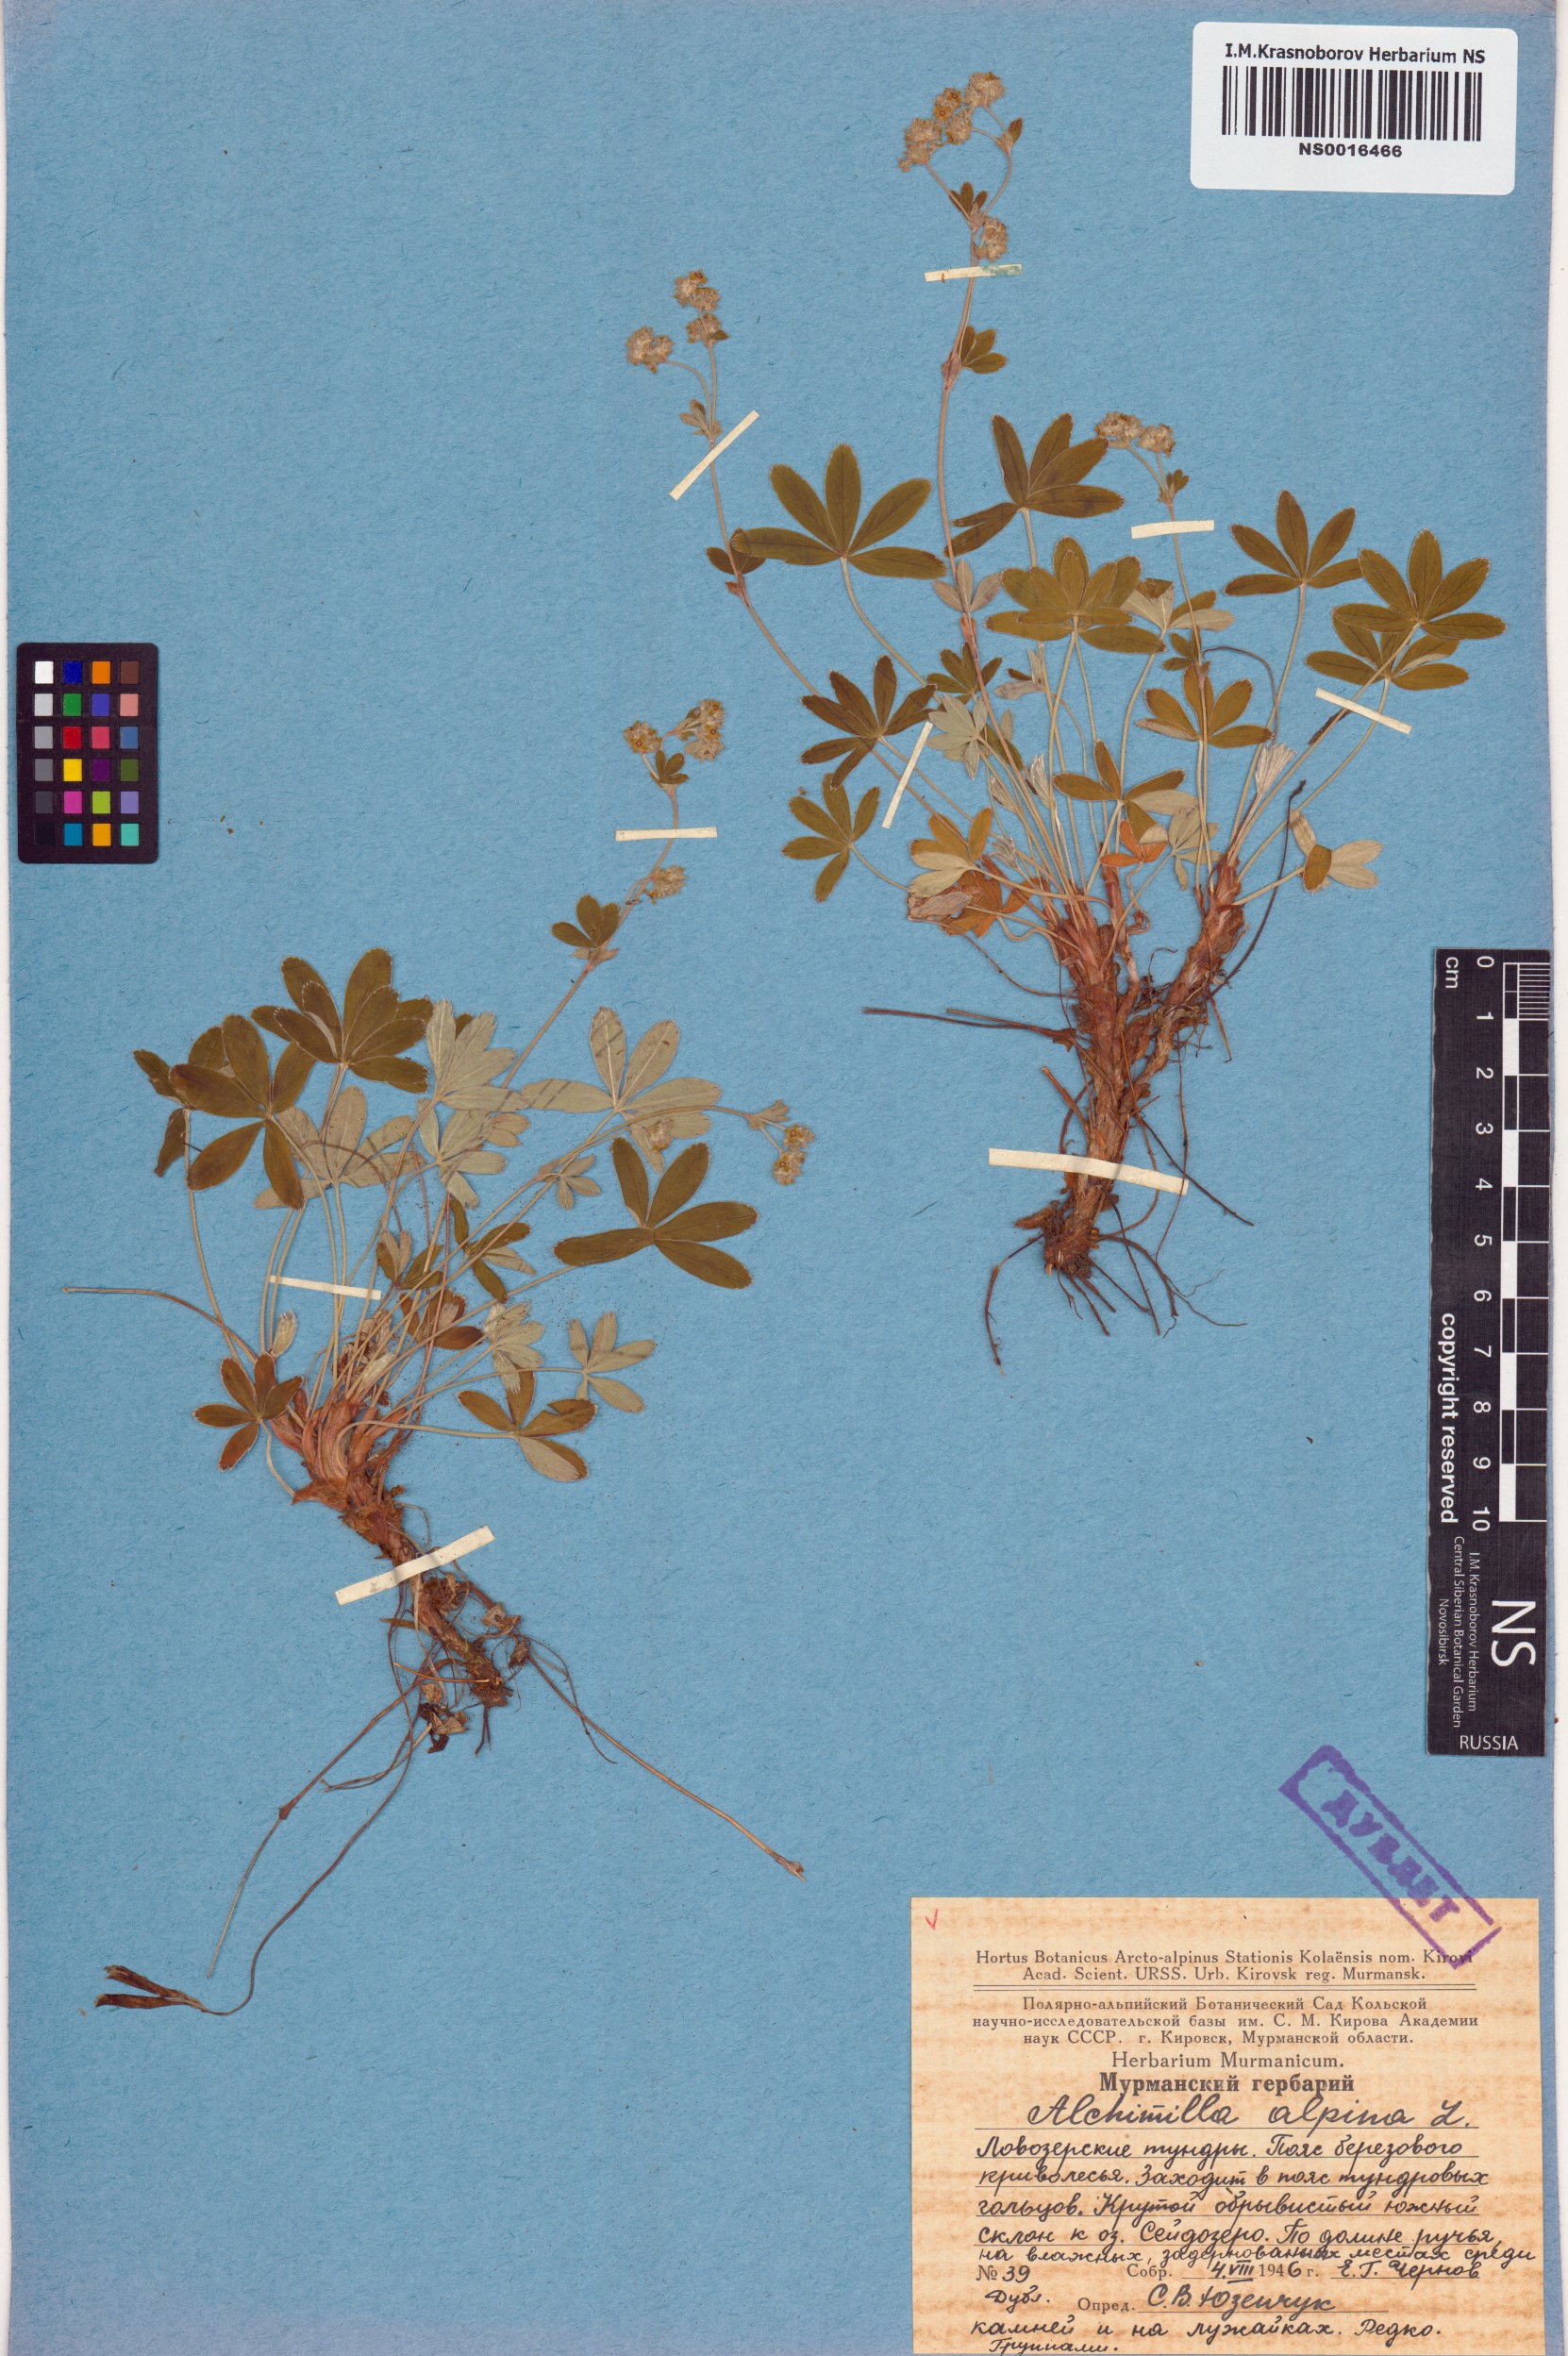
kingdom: Plantae
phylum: Tracheophyta
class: Magnoliopsida
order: Rosales
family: Rosaceae
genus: Alchemilla
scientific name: Alchemilla alpina
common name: Alpine lady's-mantle
